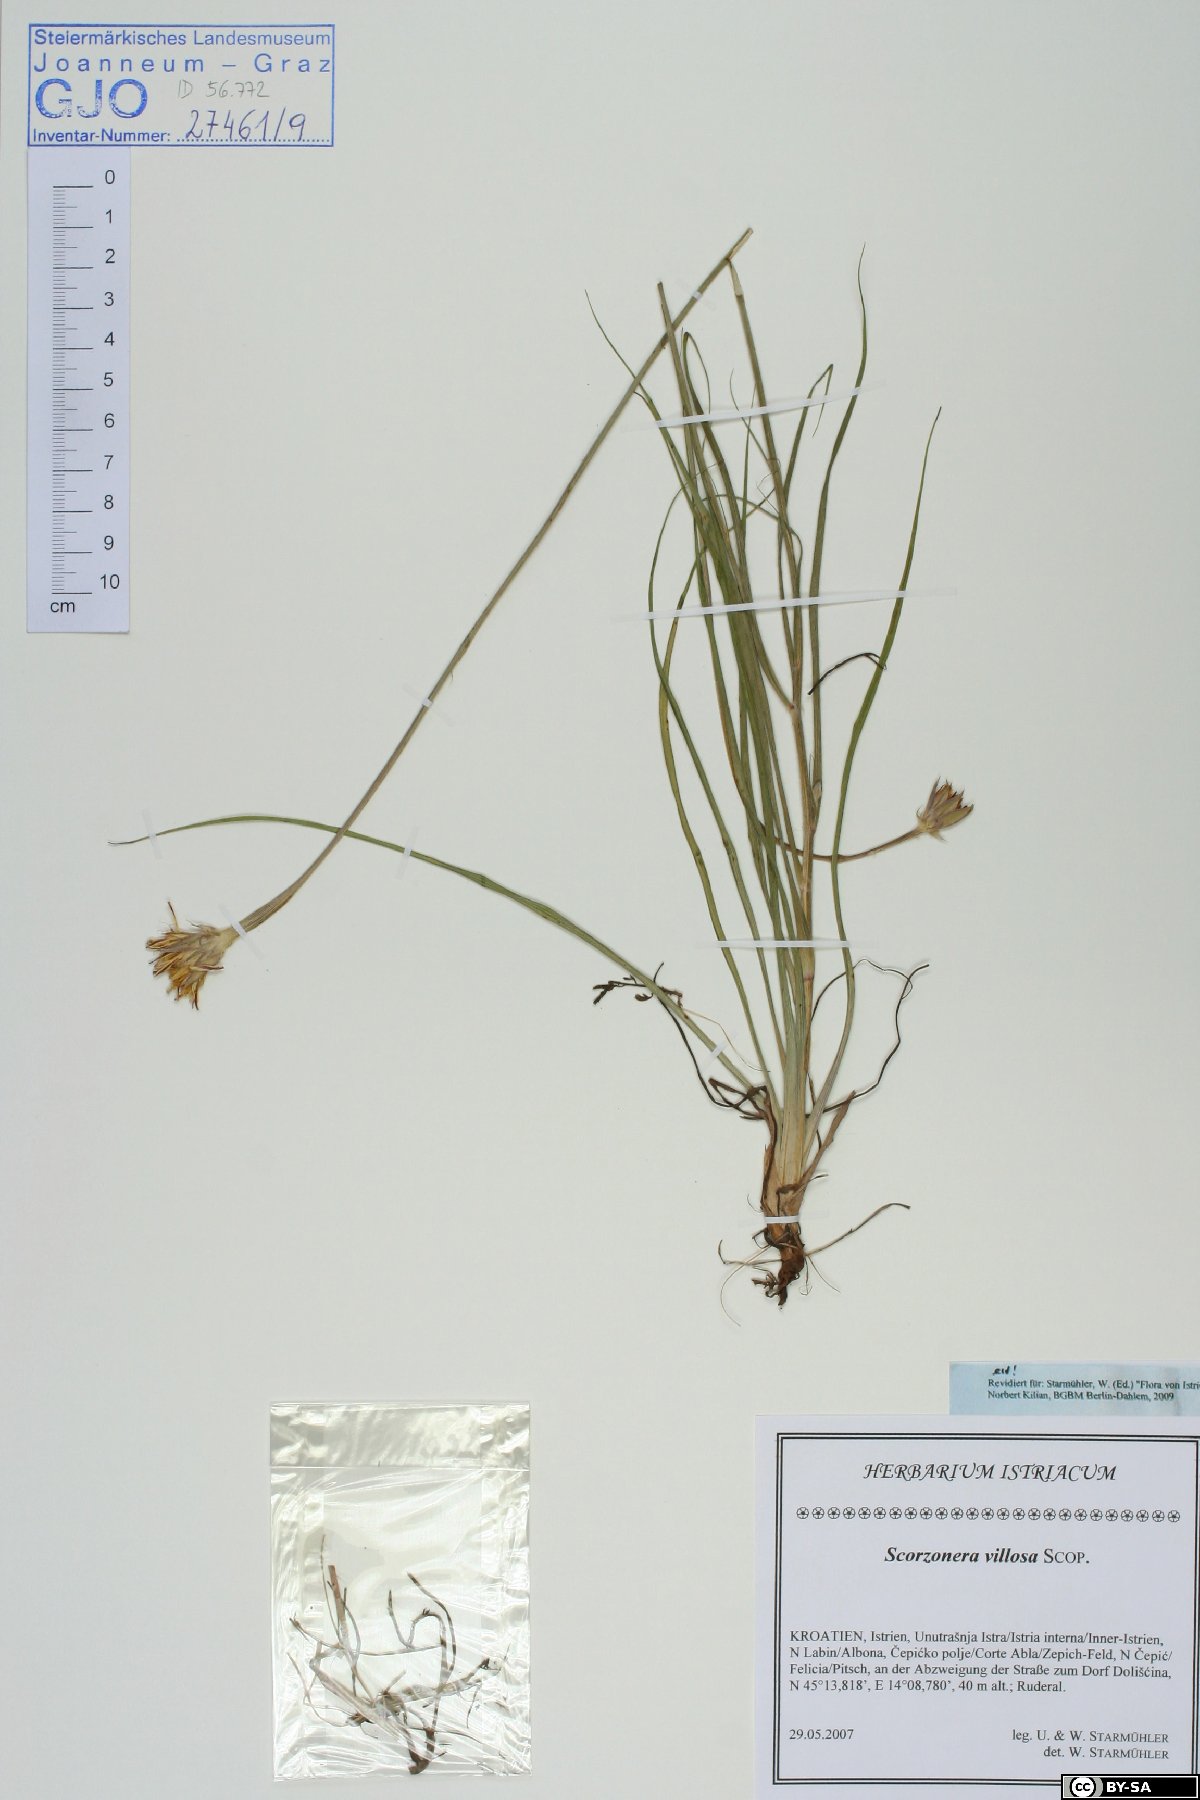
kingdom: Plantae
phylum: Tracheophyta
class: Magnoliopsida
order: Asterales
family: Asteraceae
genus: Gelasia
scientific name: Gelasia villosa
